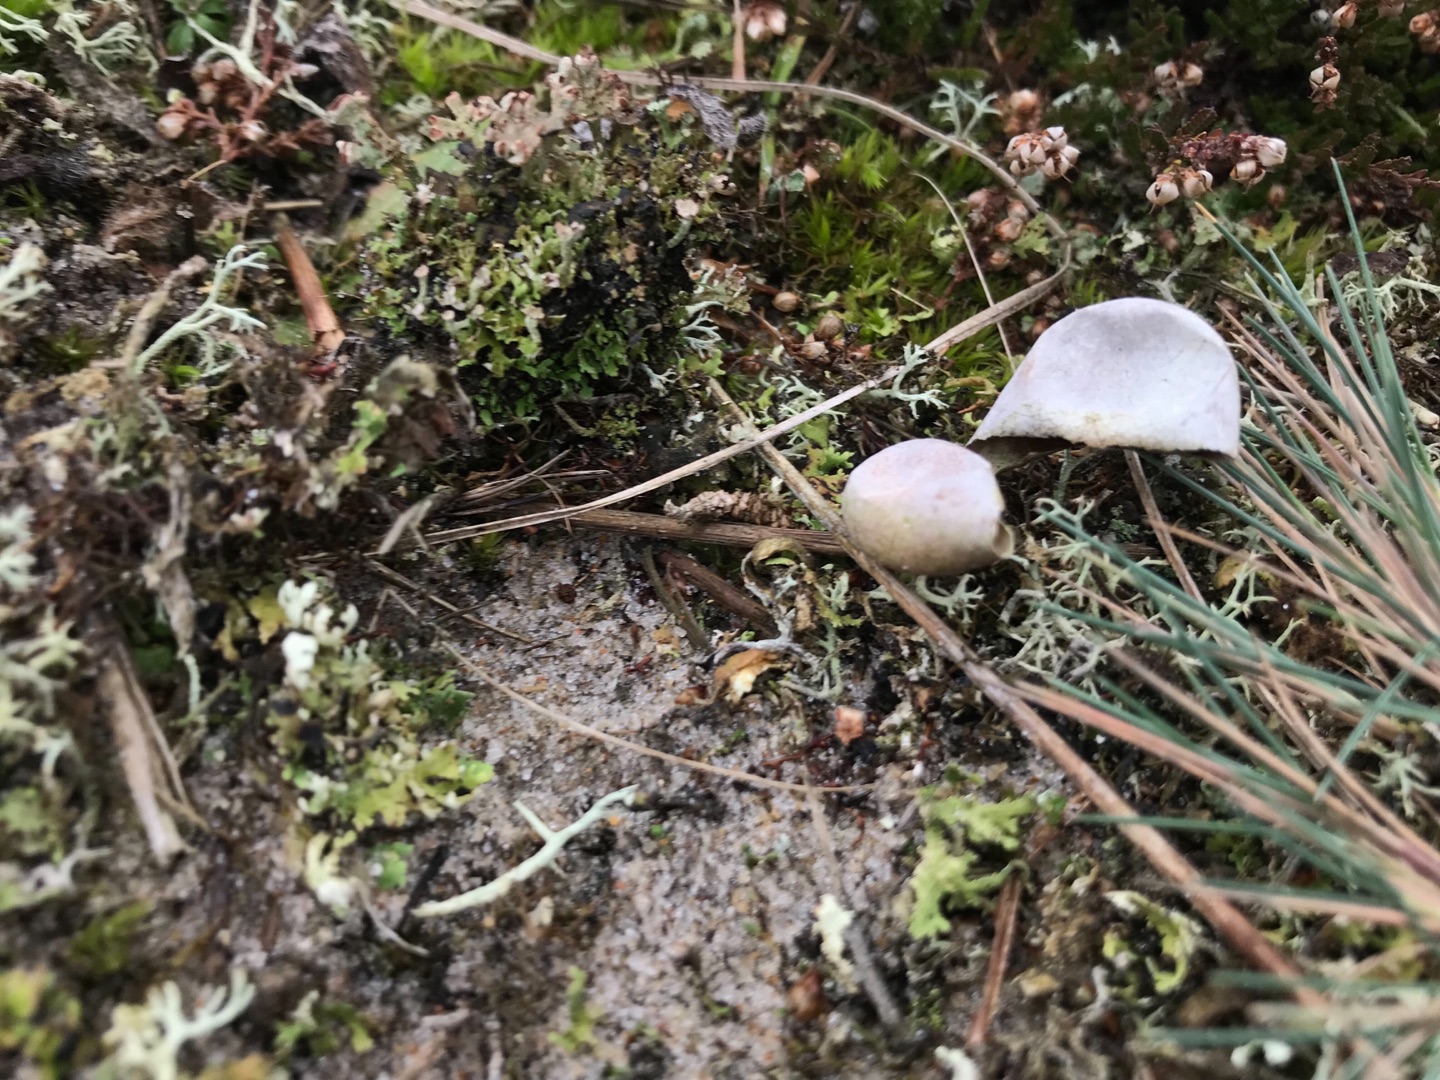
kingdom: Plantae
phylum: Tracheophyta
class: Liliopsida
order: Poales
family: Poaceae
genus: Corynephorus
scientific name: Corynephorus canescens
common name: Sandskæg
